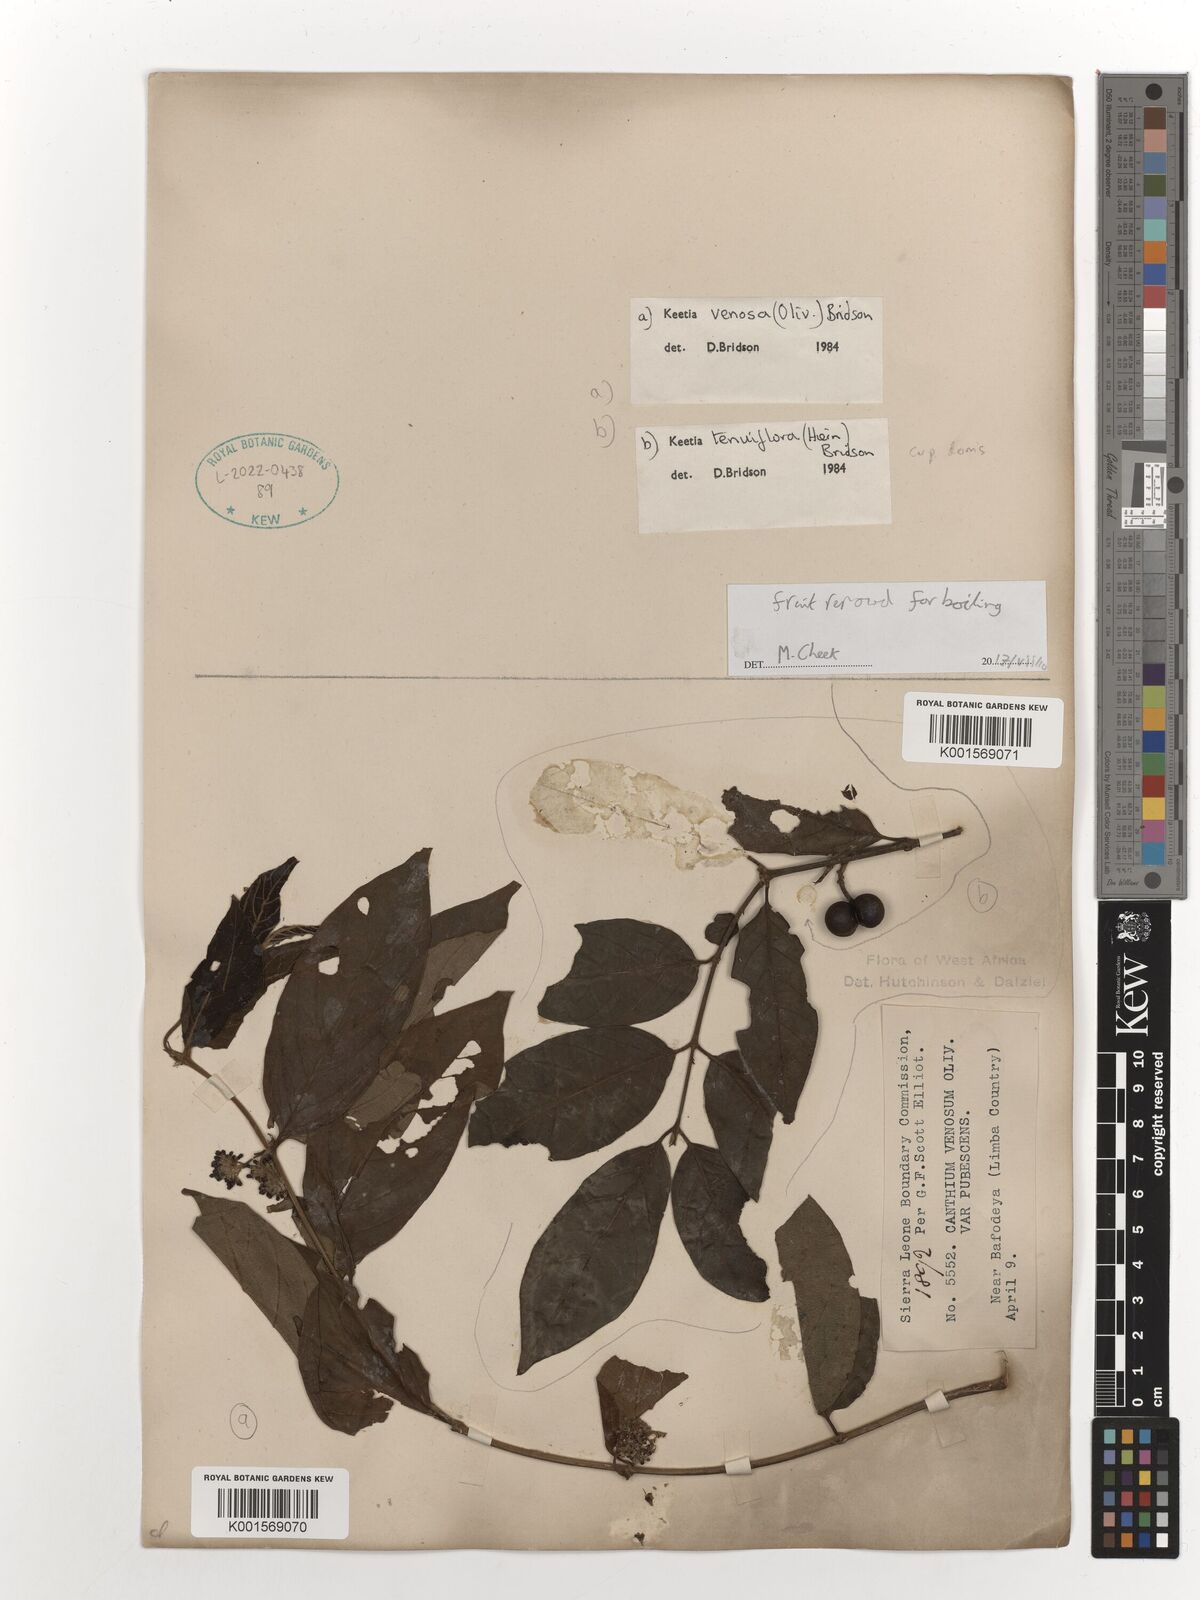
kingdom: Plantae
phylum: Tracheophyta
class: Magnoliopsida
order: Gentianales
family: Rubiaceae
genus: Keetia
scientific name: Keetia tenuiflora
